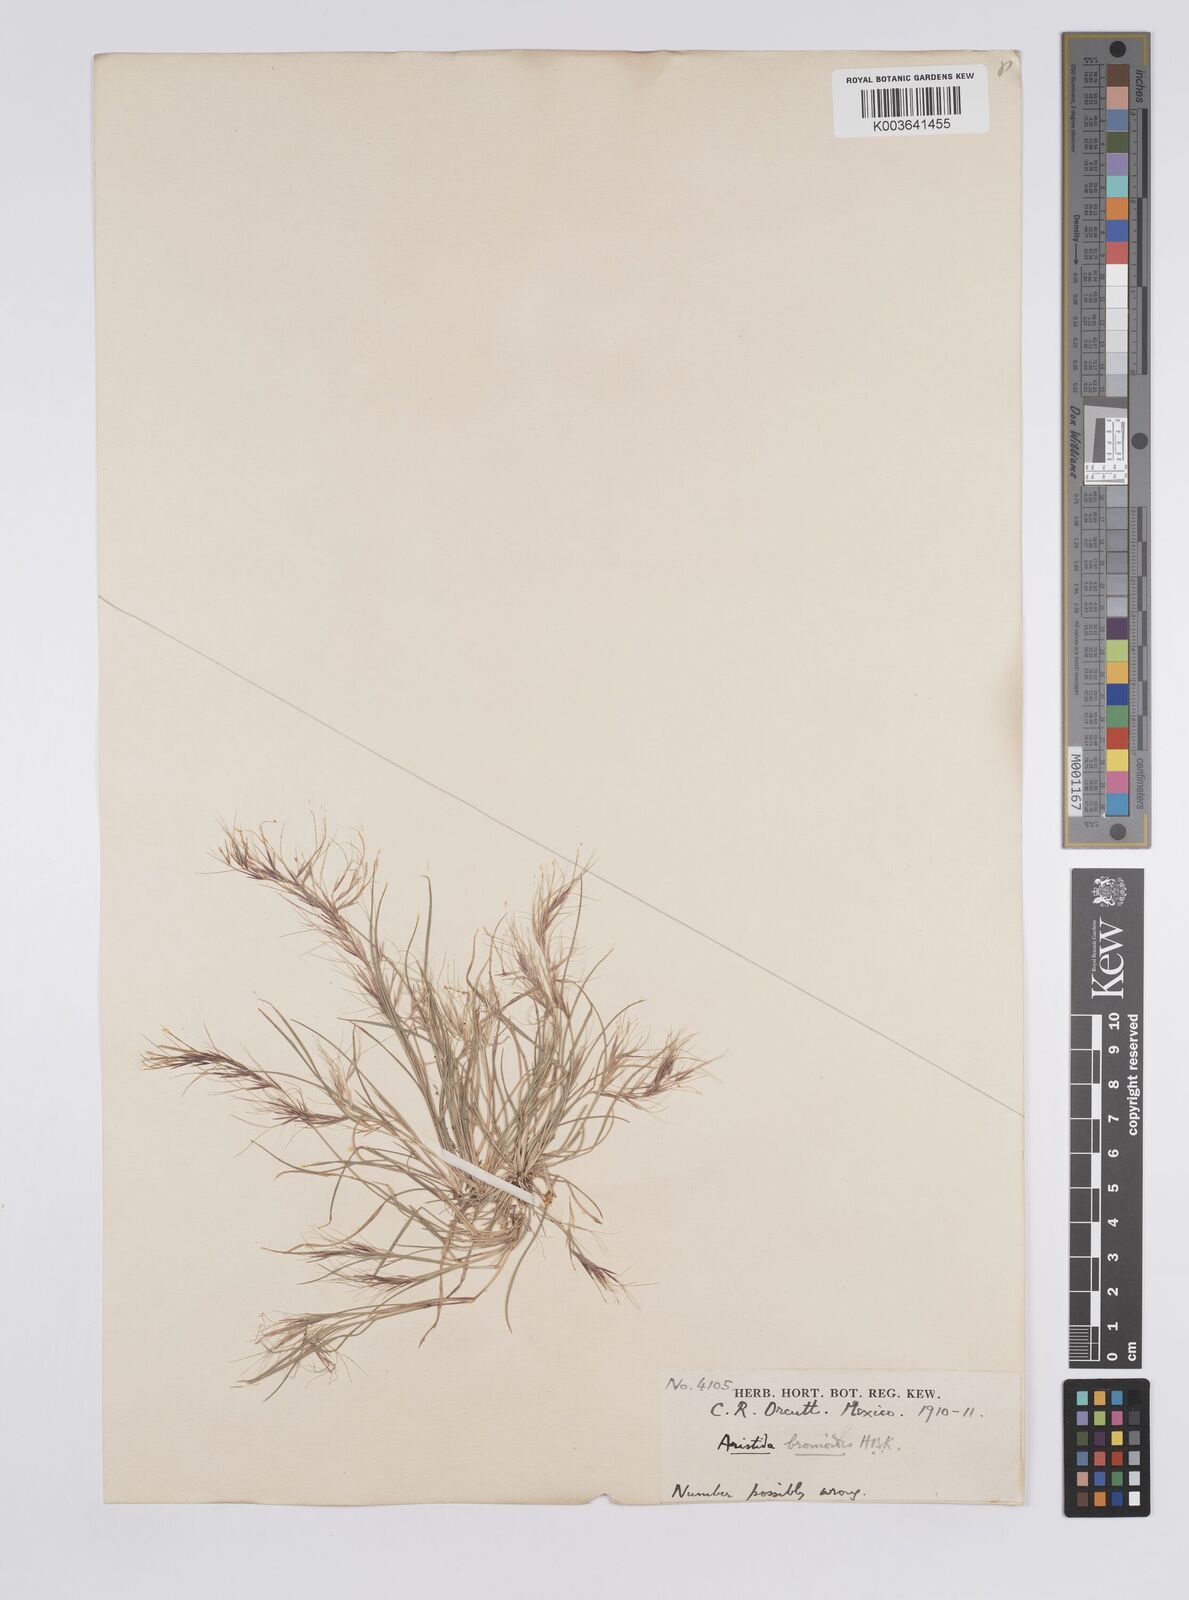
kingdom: Plantae
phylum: Tracheophyta
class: Liliopsida
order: Poales
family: Poaceae
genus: Aristida
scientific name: Aristida adscensionis
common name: Sixweeks threeawn
